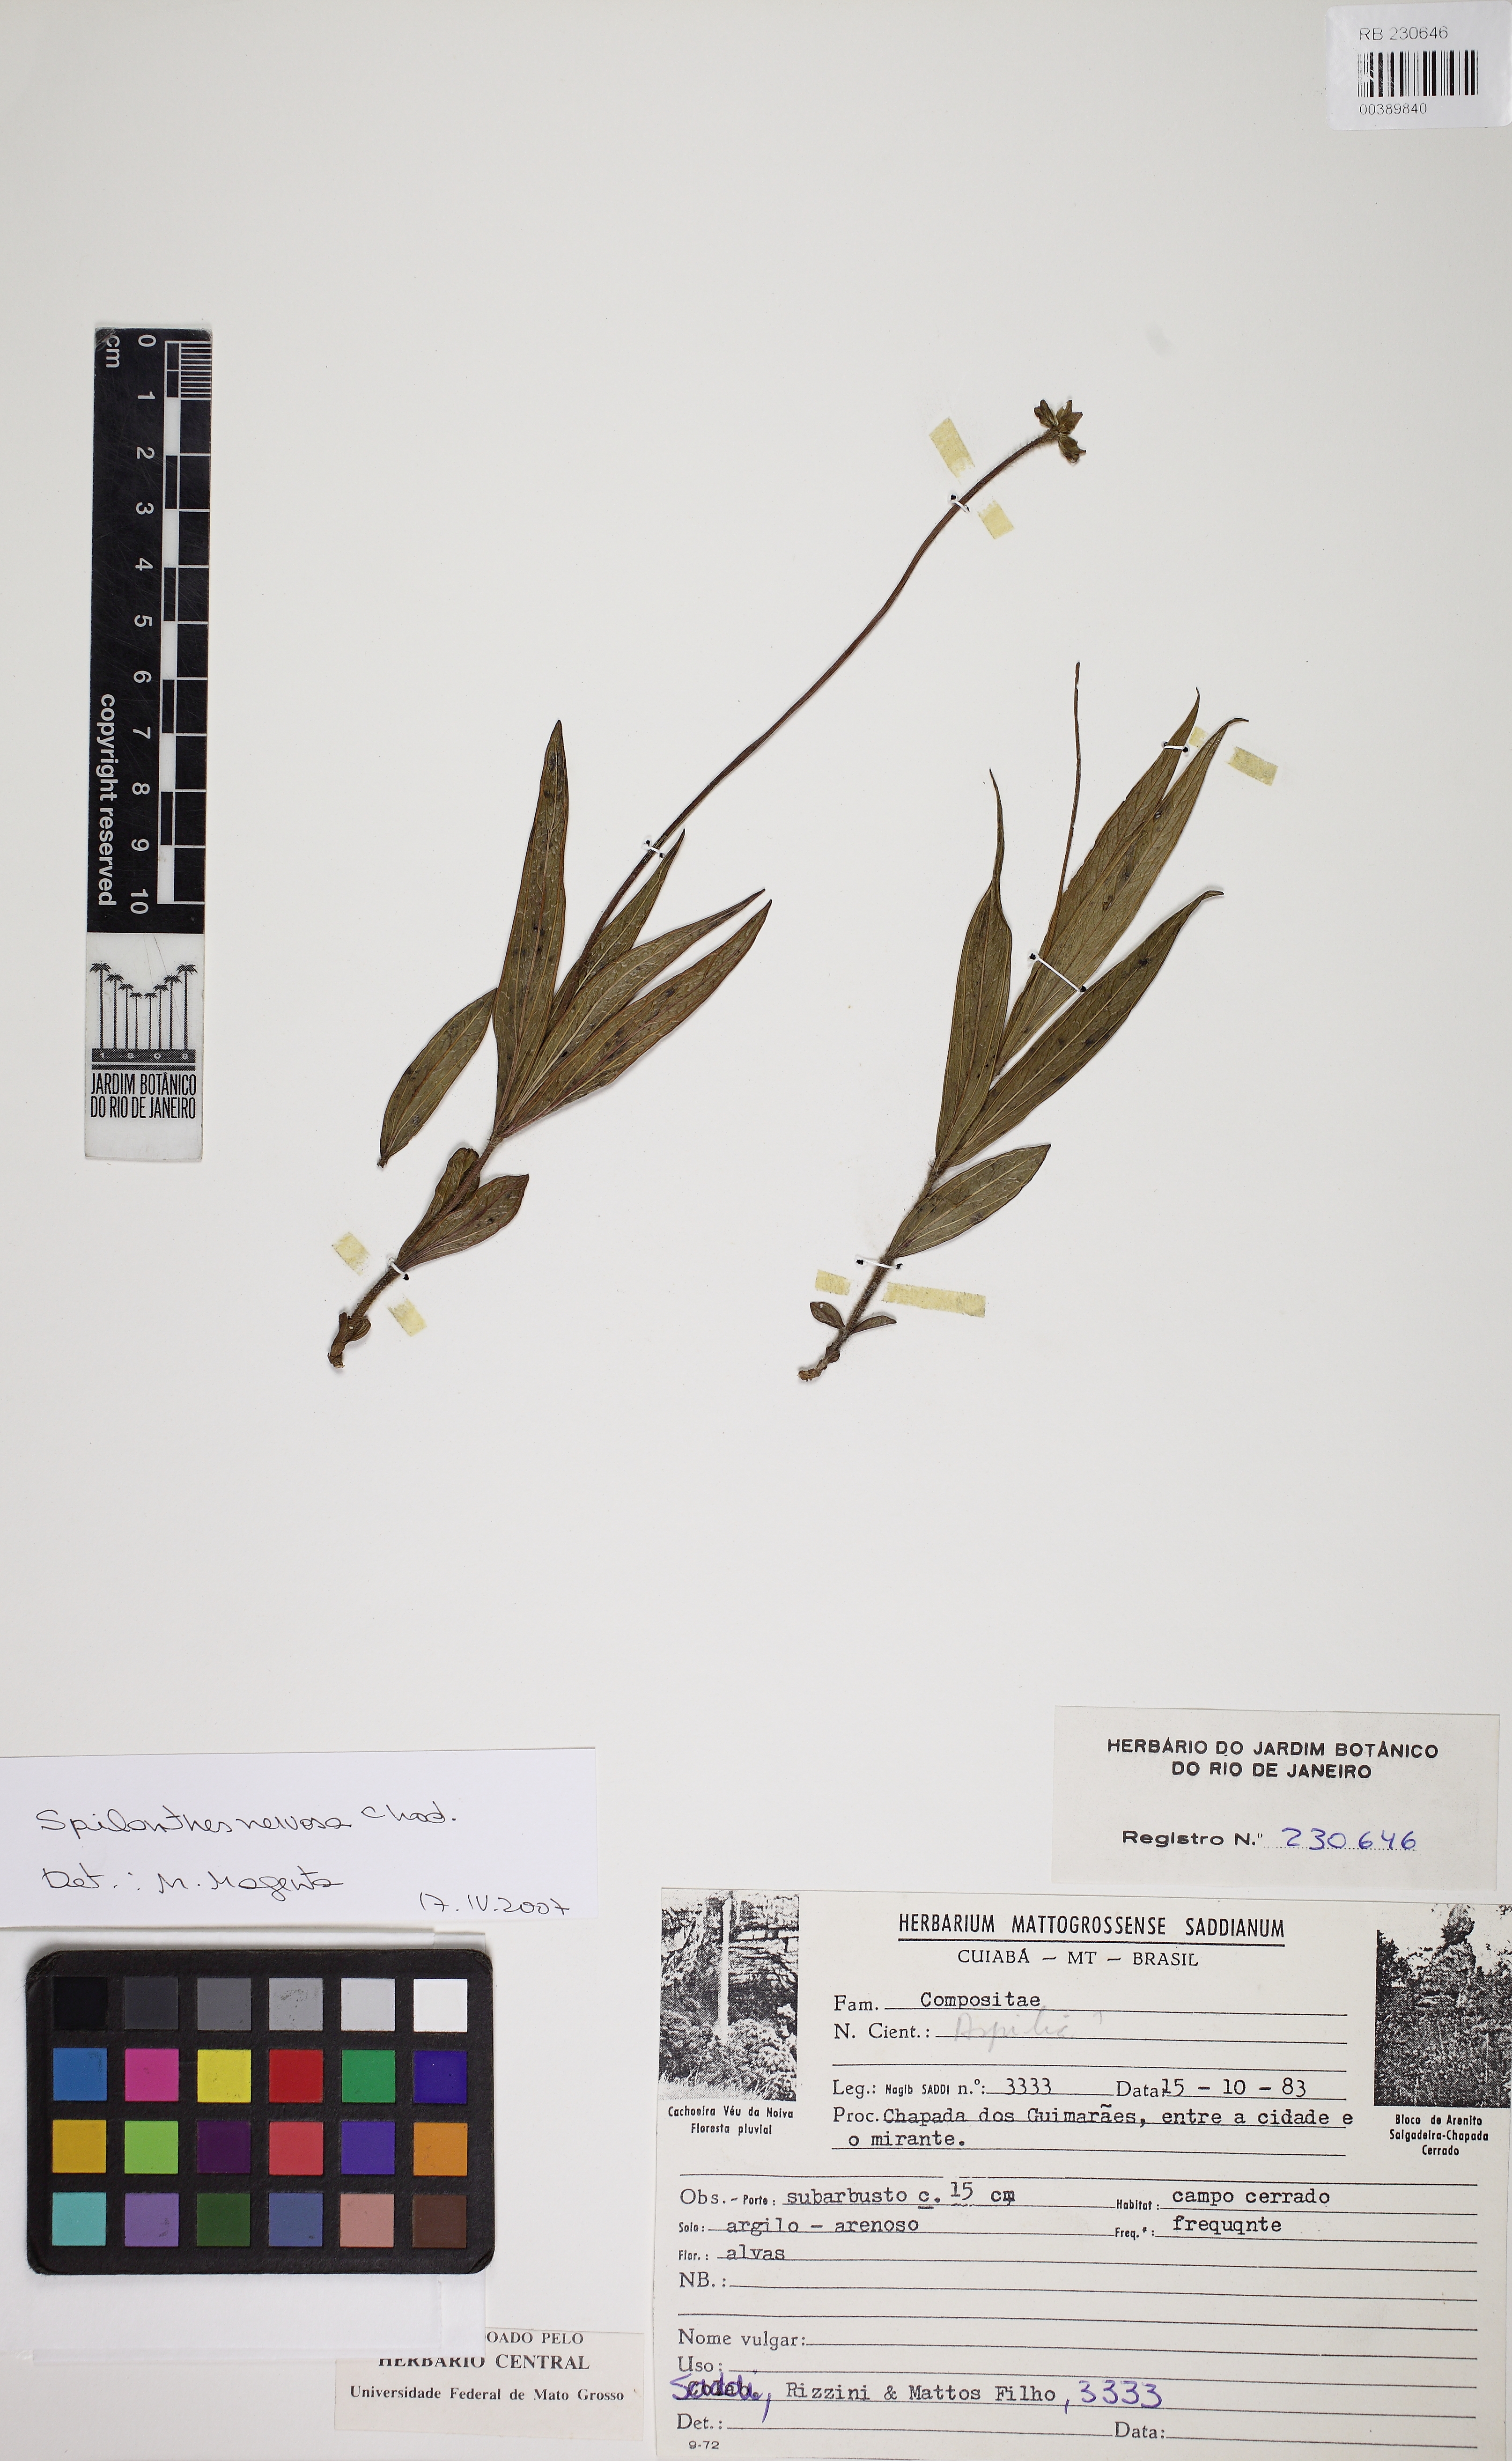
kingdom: Plantae
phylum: Tracheophyta
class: Magnoliopsida
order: Asterales
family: Asteraceae
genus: Spilanthes
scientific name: Spilanthes nervosa
